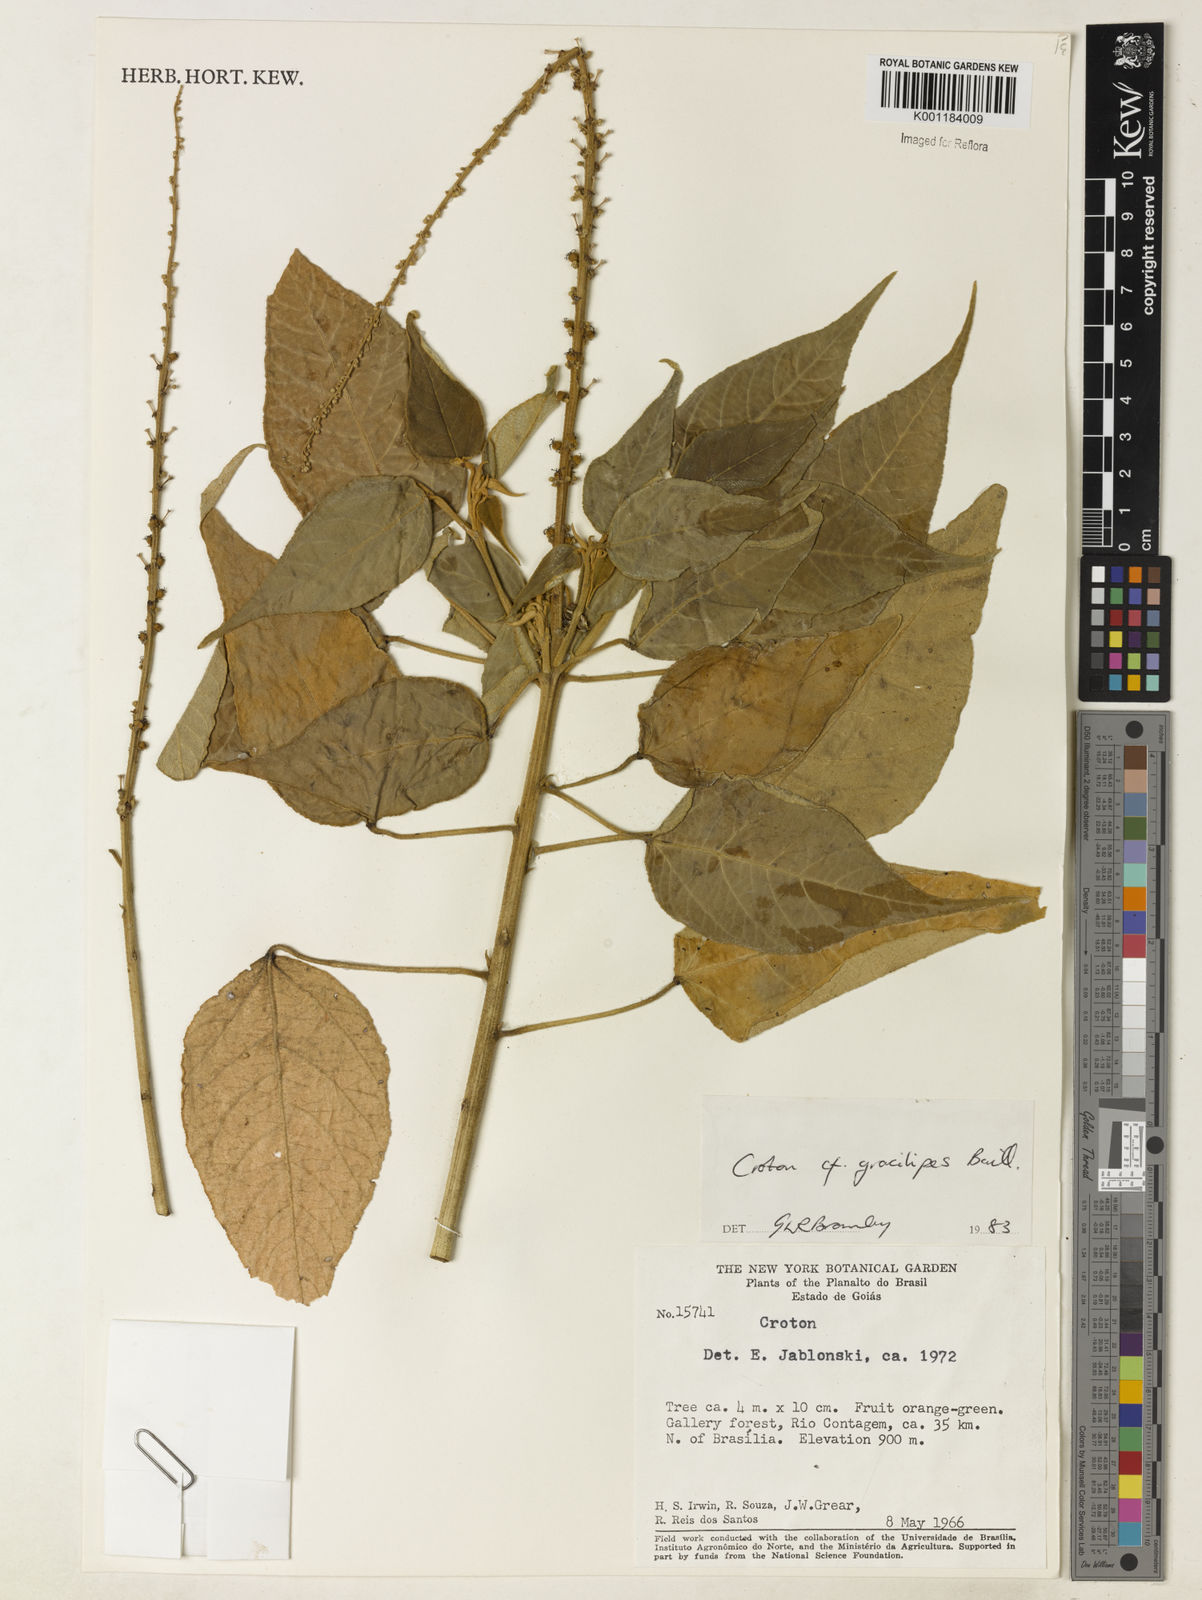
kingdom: Plantae
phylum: Tracheophyta
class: Magnoliopsida
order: Malpighiales
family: Euphorbiaceae
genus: Croton
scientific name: Croton gracilipes
